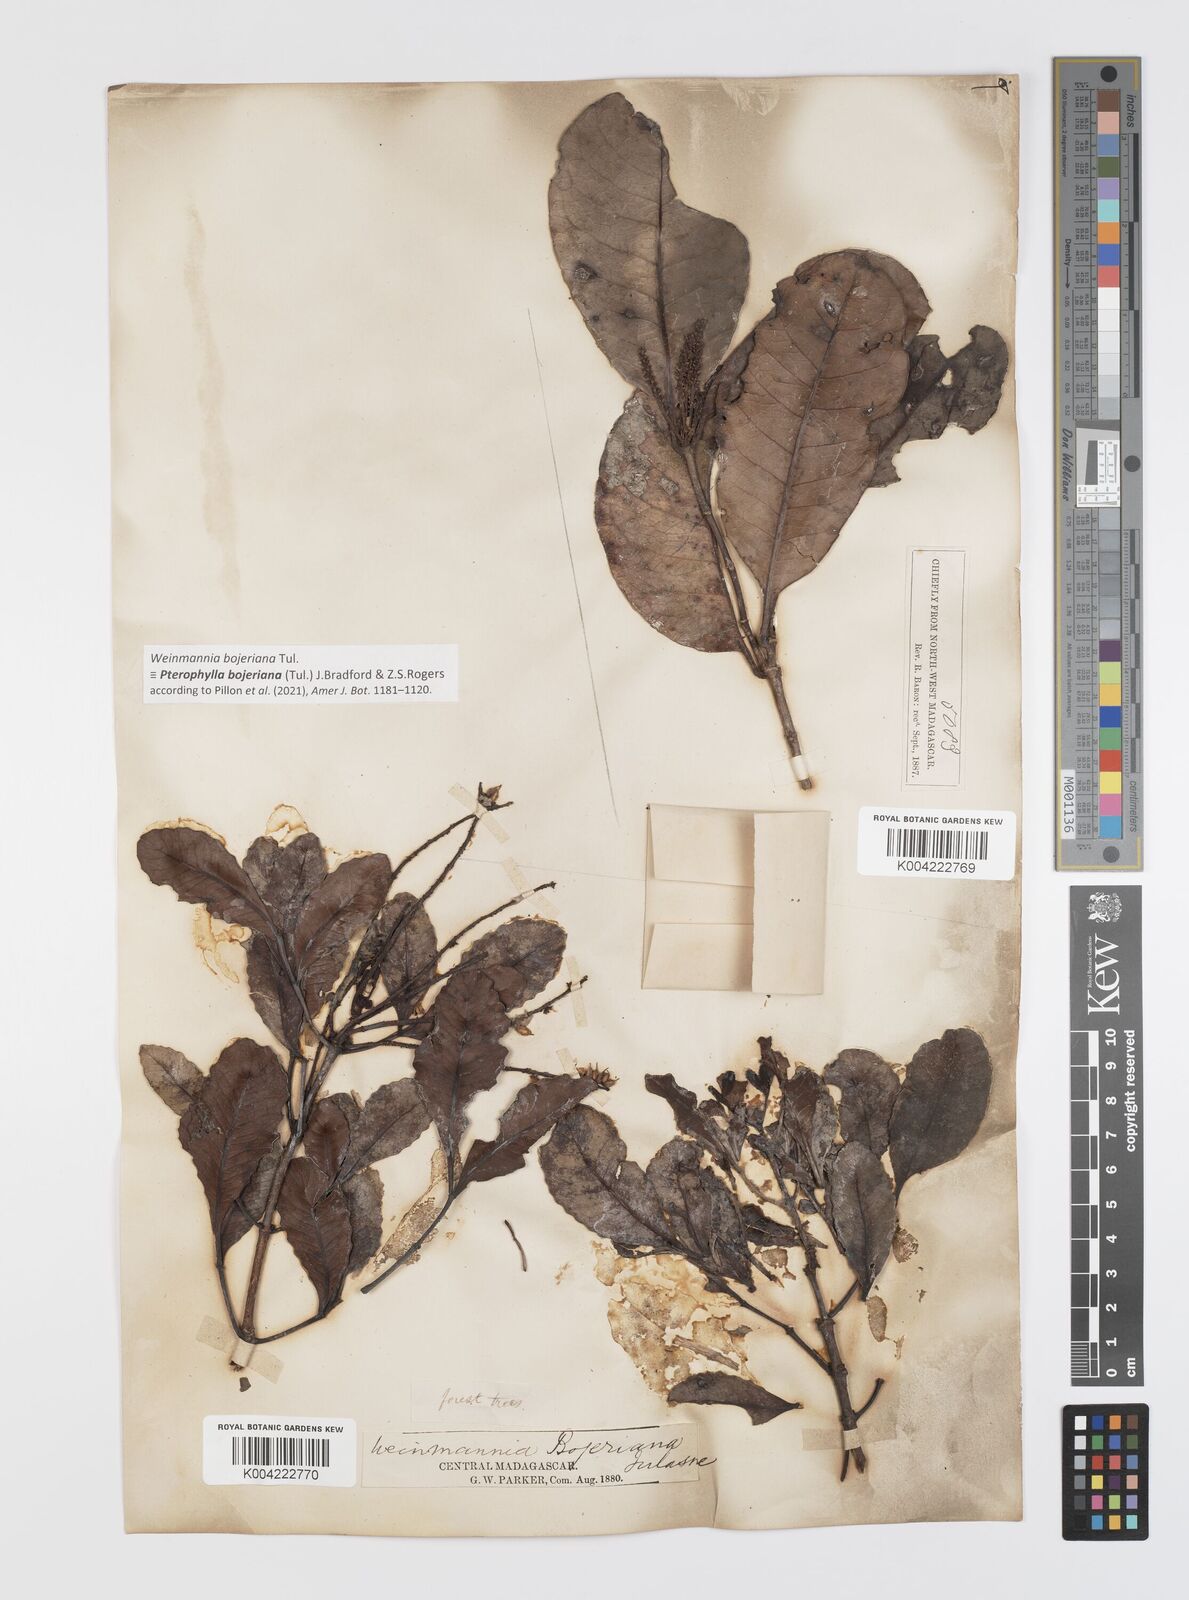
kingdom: Plantae
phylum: Tracheophyta
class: Magnoliopsida
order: Oxalidales
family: Cunoniaceae
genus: Pterophylla
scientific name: Pterophylla
